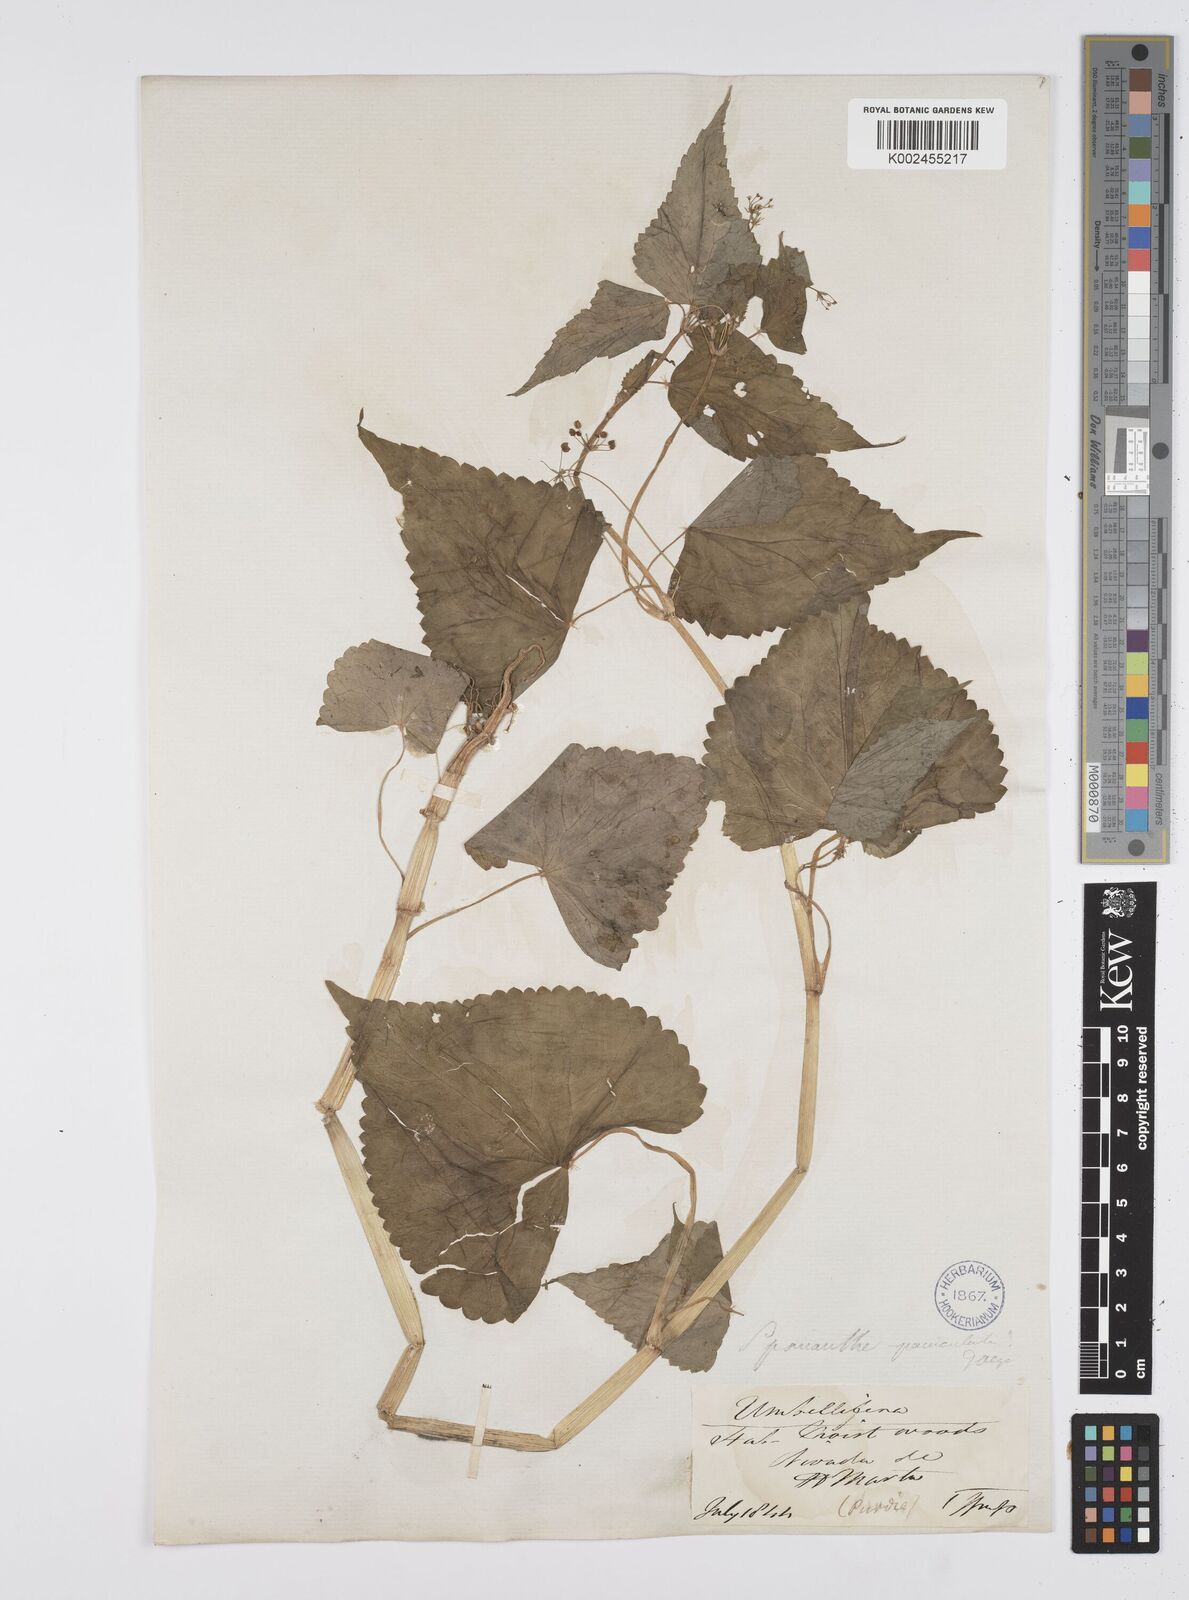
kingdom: Plantae
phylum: Tracheophyta
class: Magnoliopsida
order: Apiales
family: Apiaceae
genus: Azorella
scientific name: Azorella
